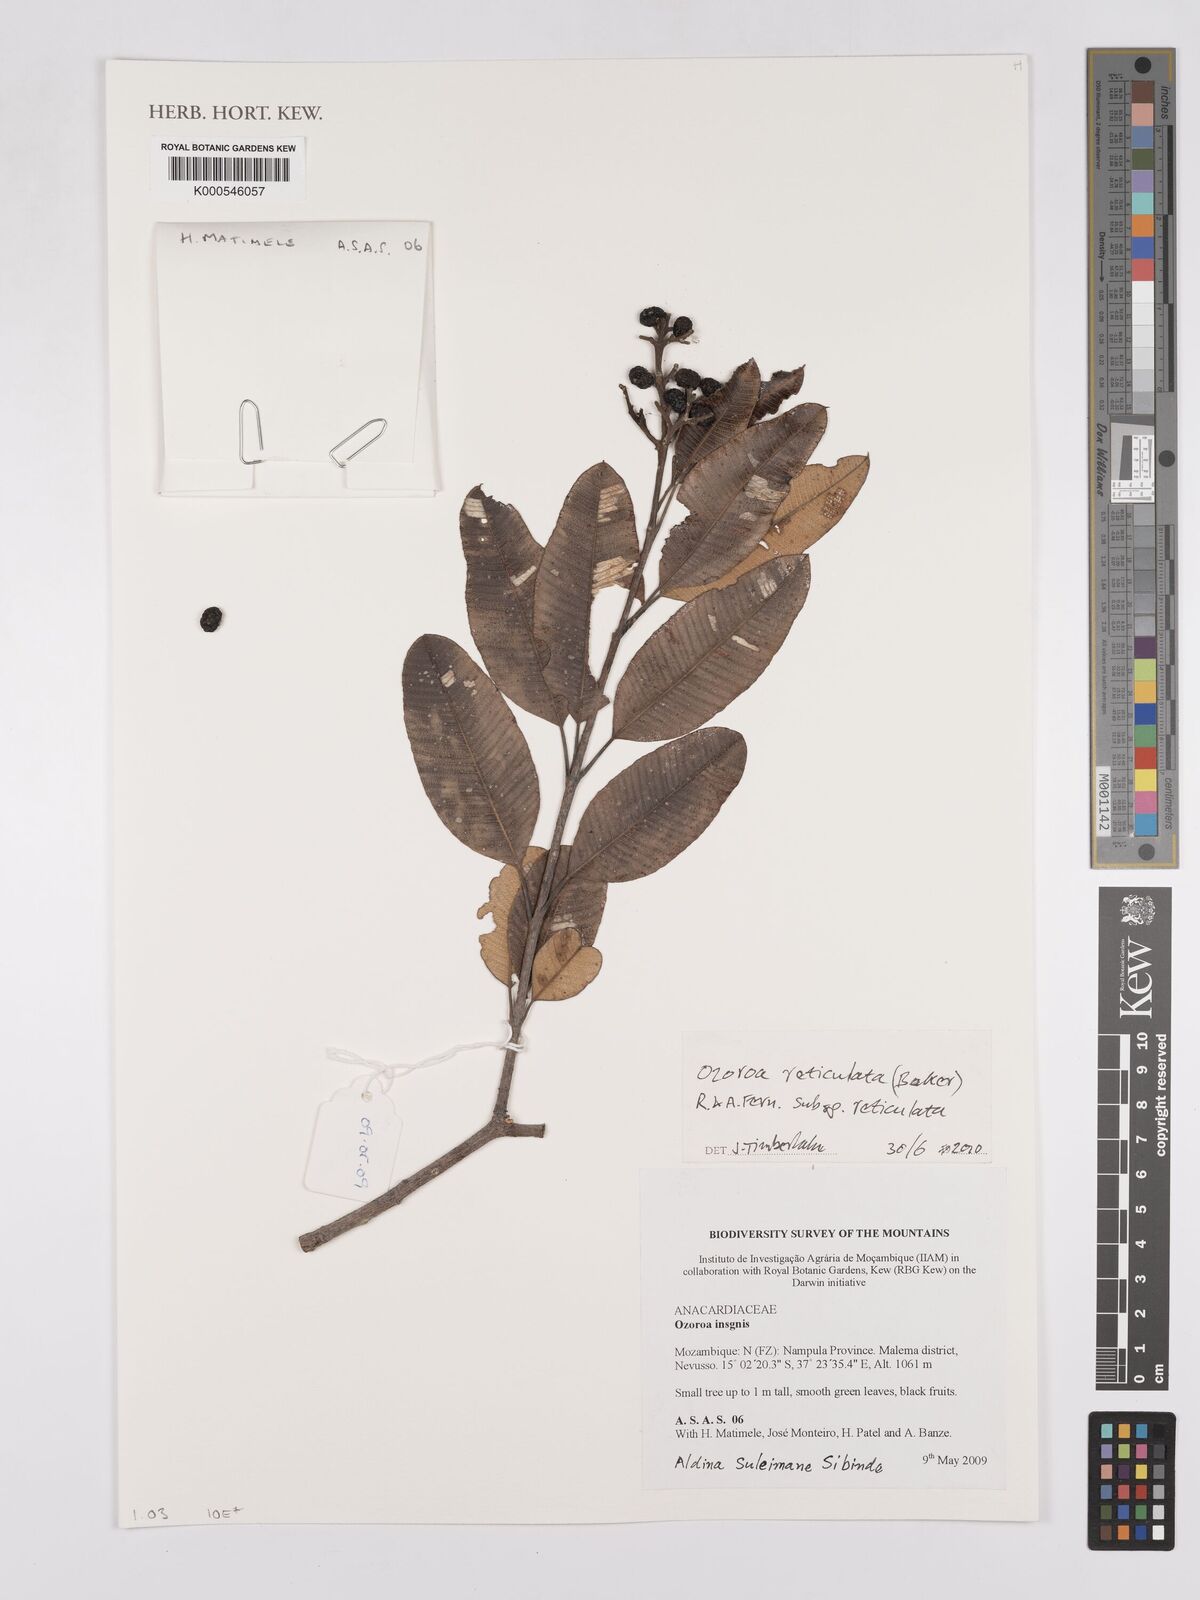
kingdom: Plantae
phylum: Tracheophyta
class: Magnoliopsida
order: Sapindales
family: Anacardiaceae
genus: Ozoroa
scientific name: Ozoroa insignis
